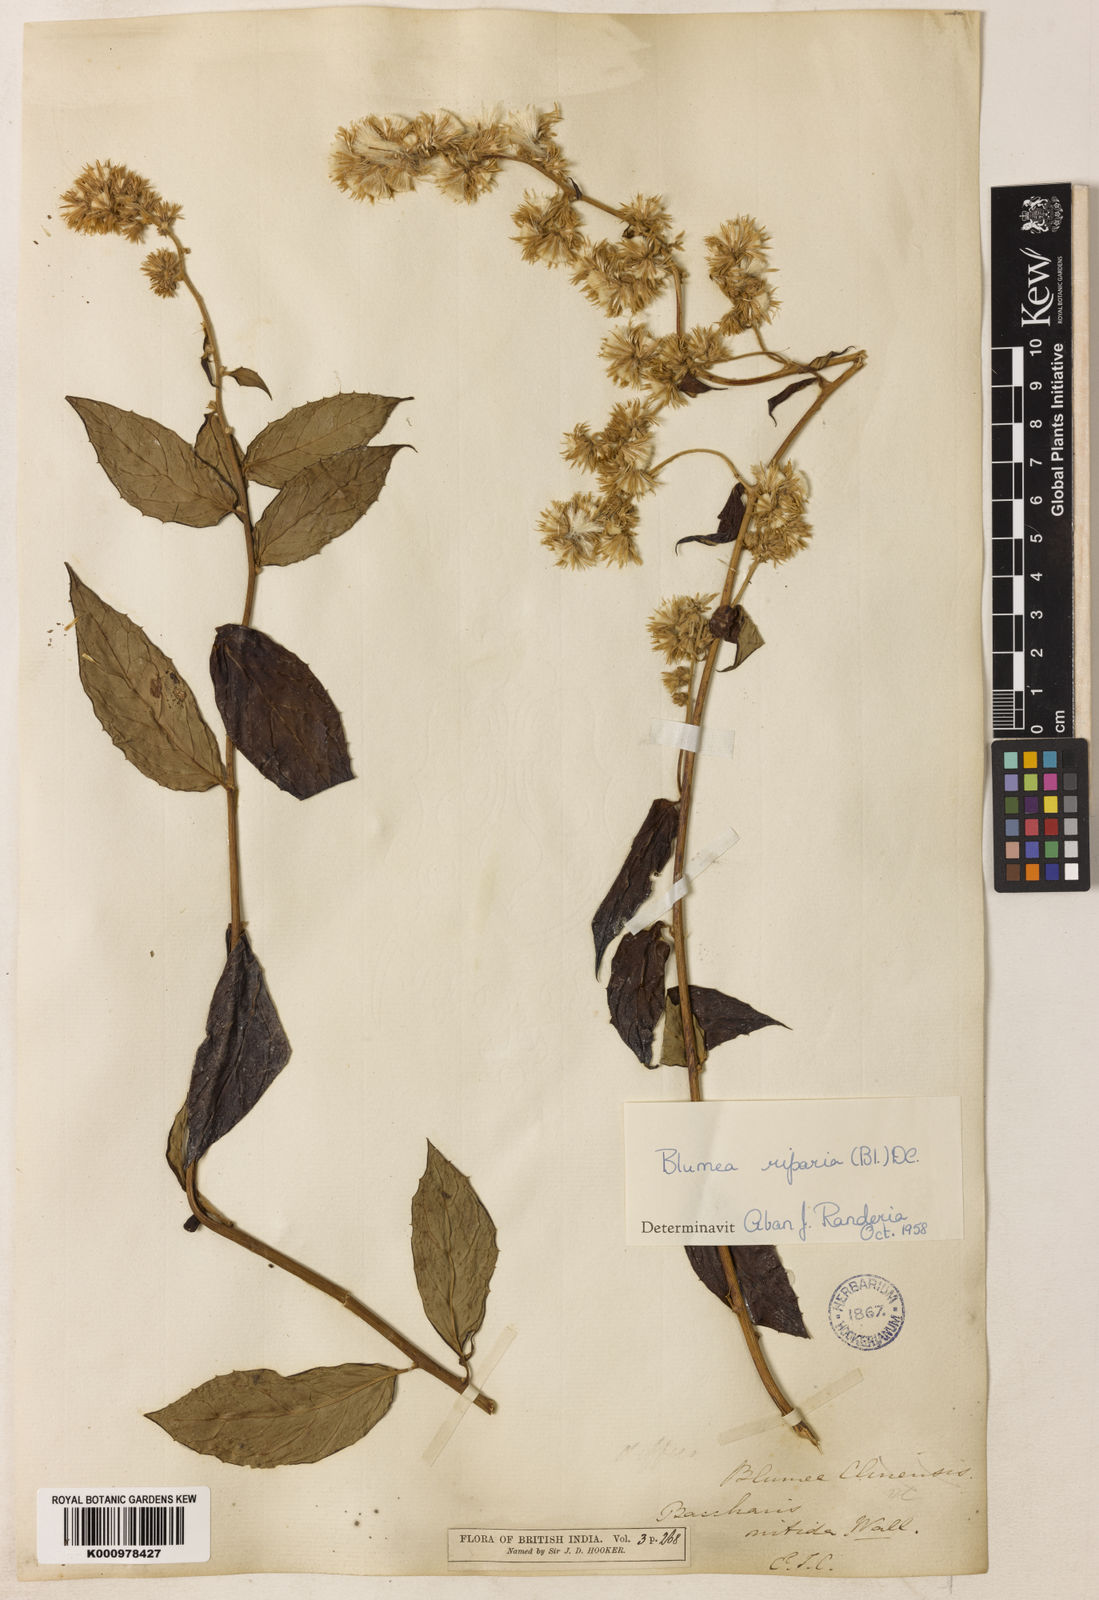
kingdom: Plantae
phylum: Tracheophyta
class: Magnoliopsida
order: Asterales
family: Asteraceae
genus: Blumea
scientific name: Blumea riparia
